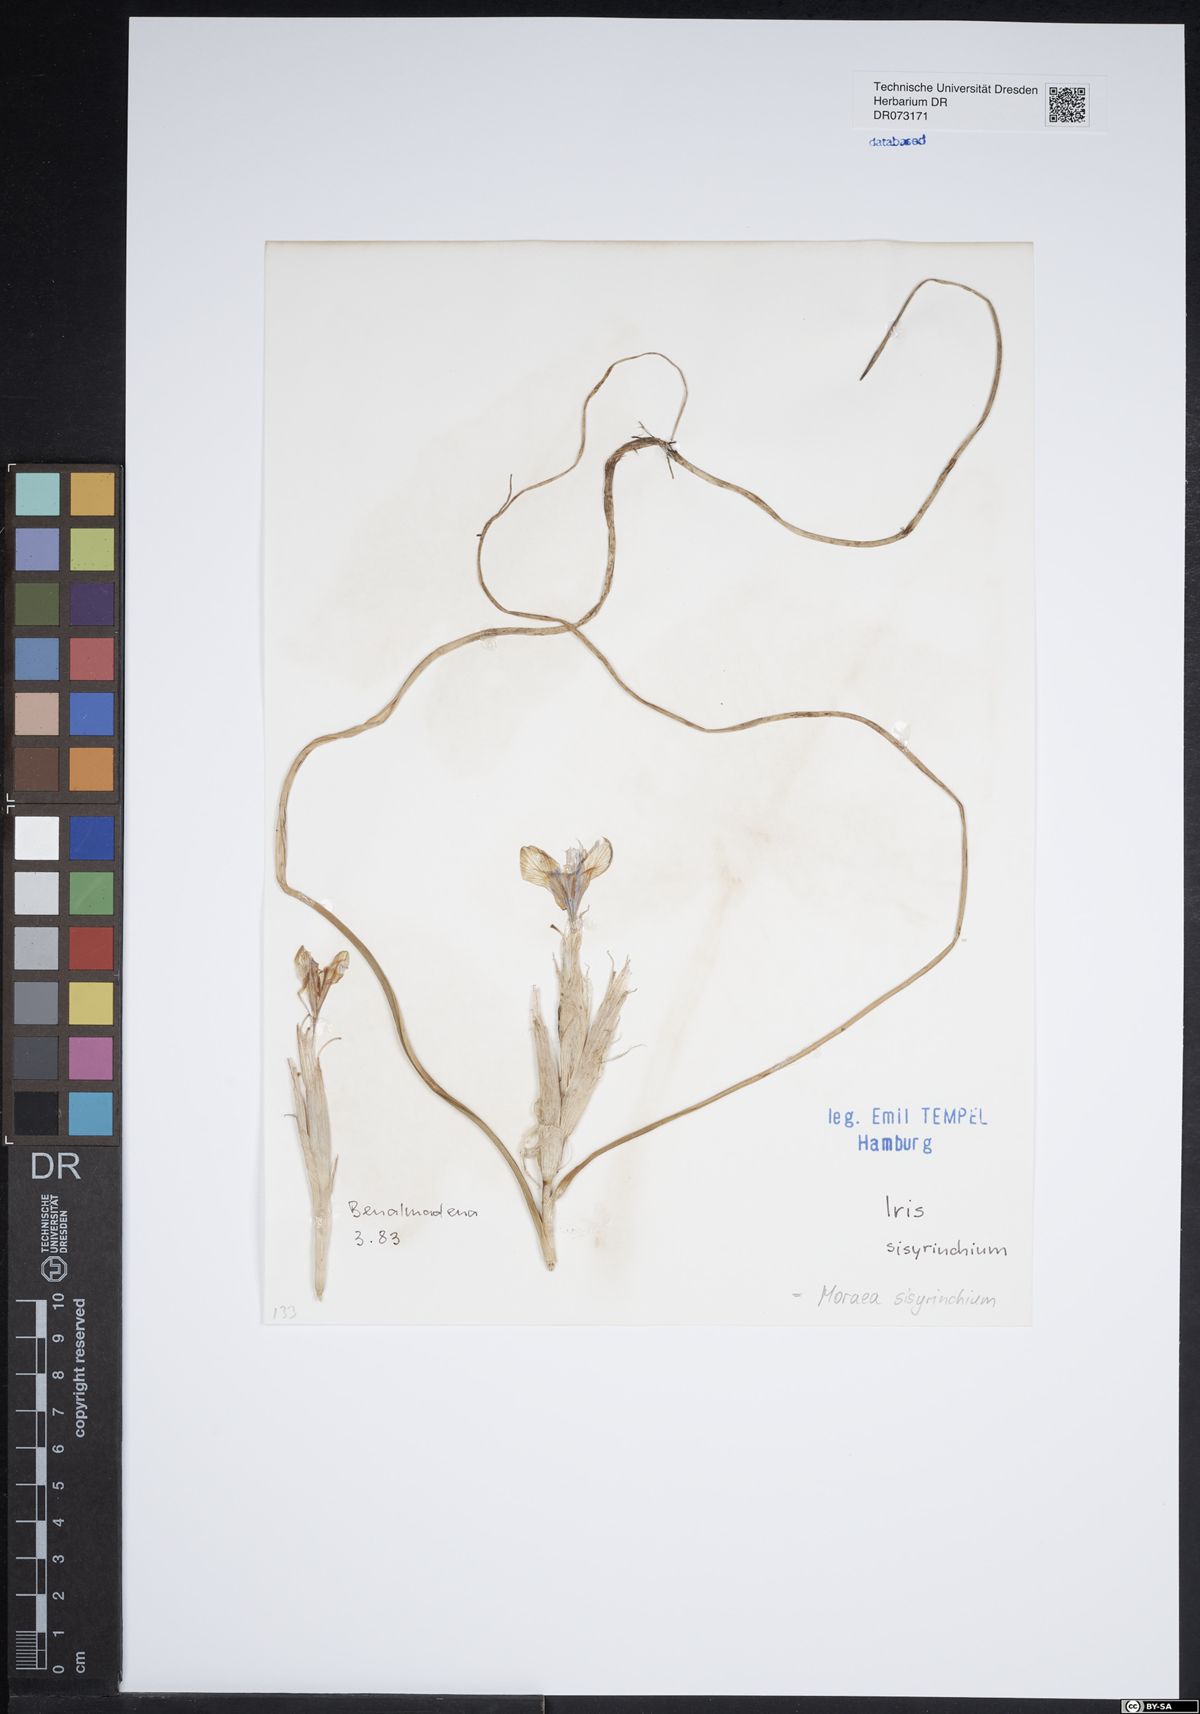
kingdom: Plantae
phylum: Tracheophyta
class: Liliopsida
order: Asparagales
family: Iridaceae
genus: Moraea
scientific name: Moraea sisyrinchium
